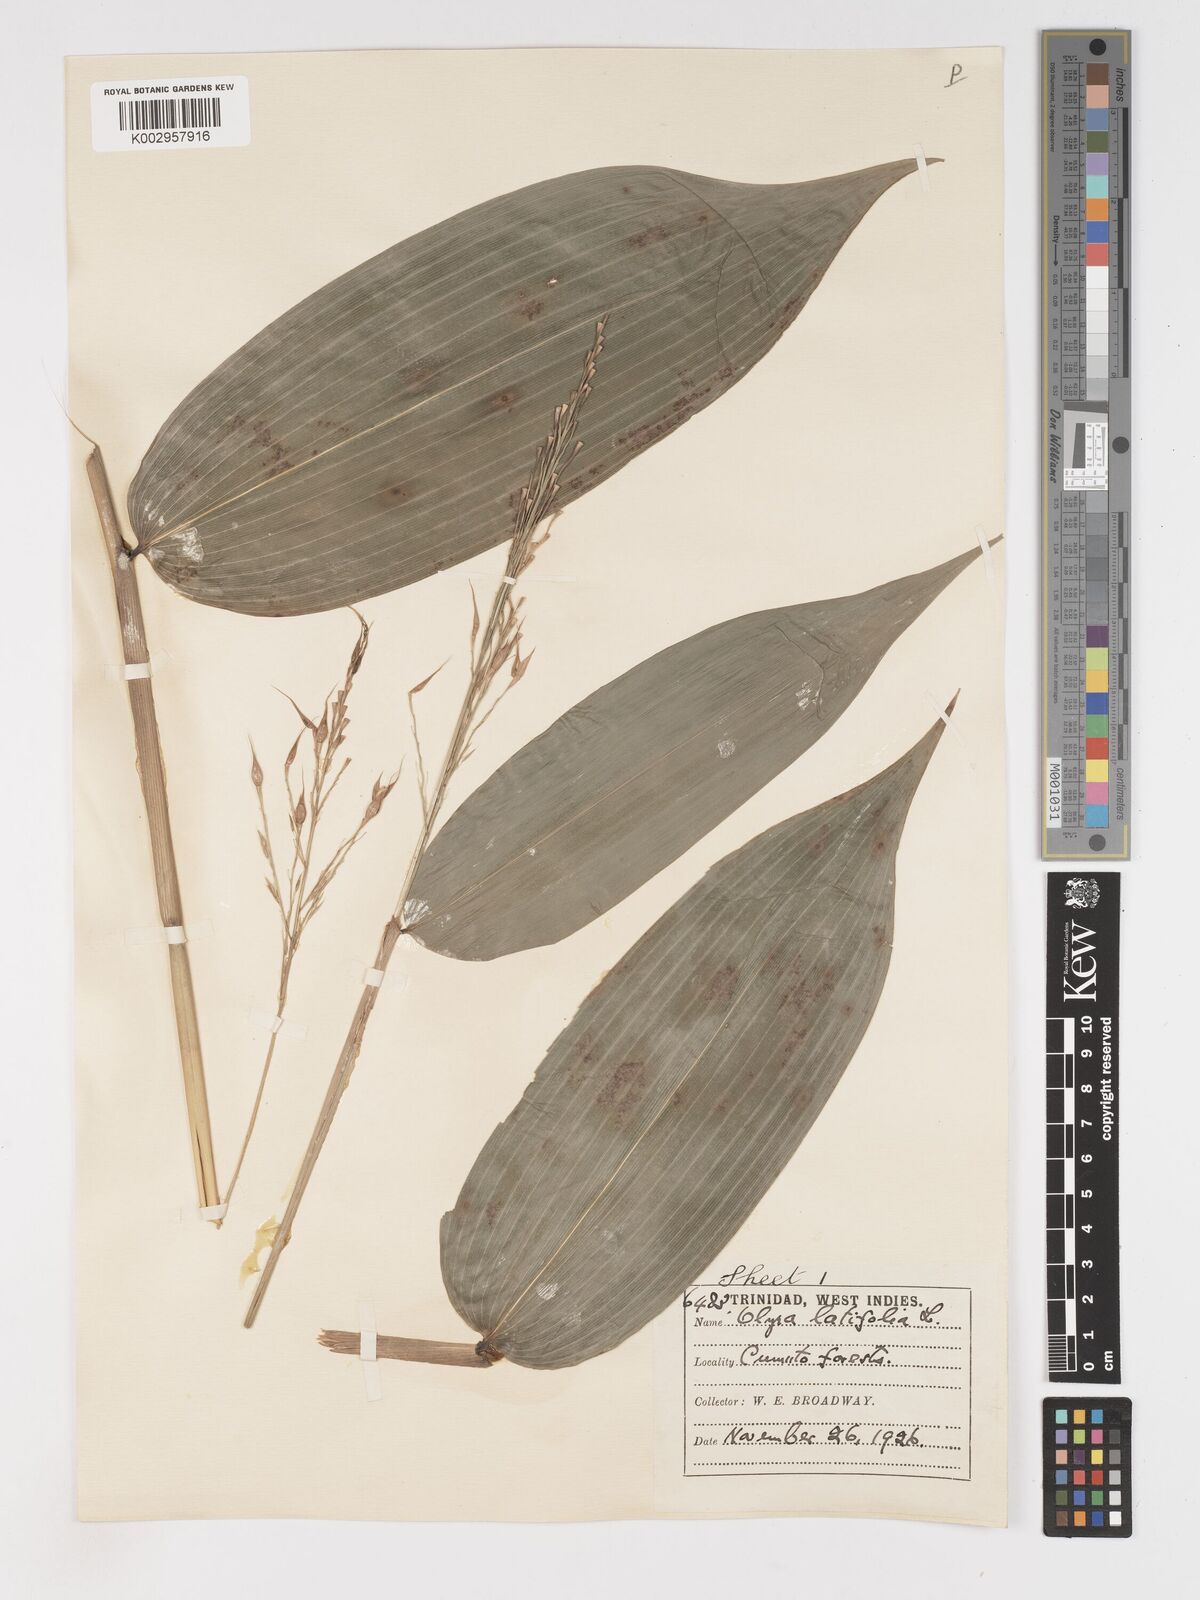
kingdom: Plantae
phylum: Tracheophyta
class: Liliopsida
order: Poales
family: Poaceae
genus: Olyra
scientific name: Olyra latifolia
